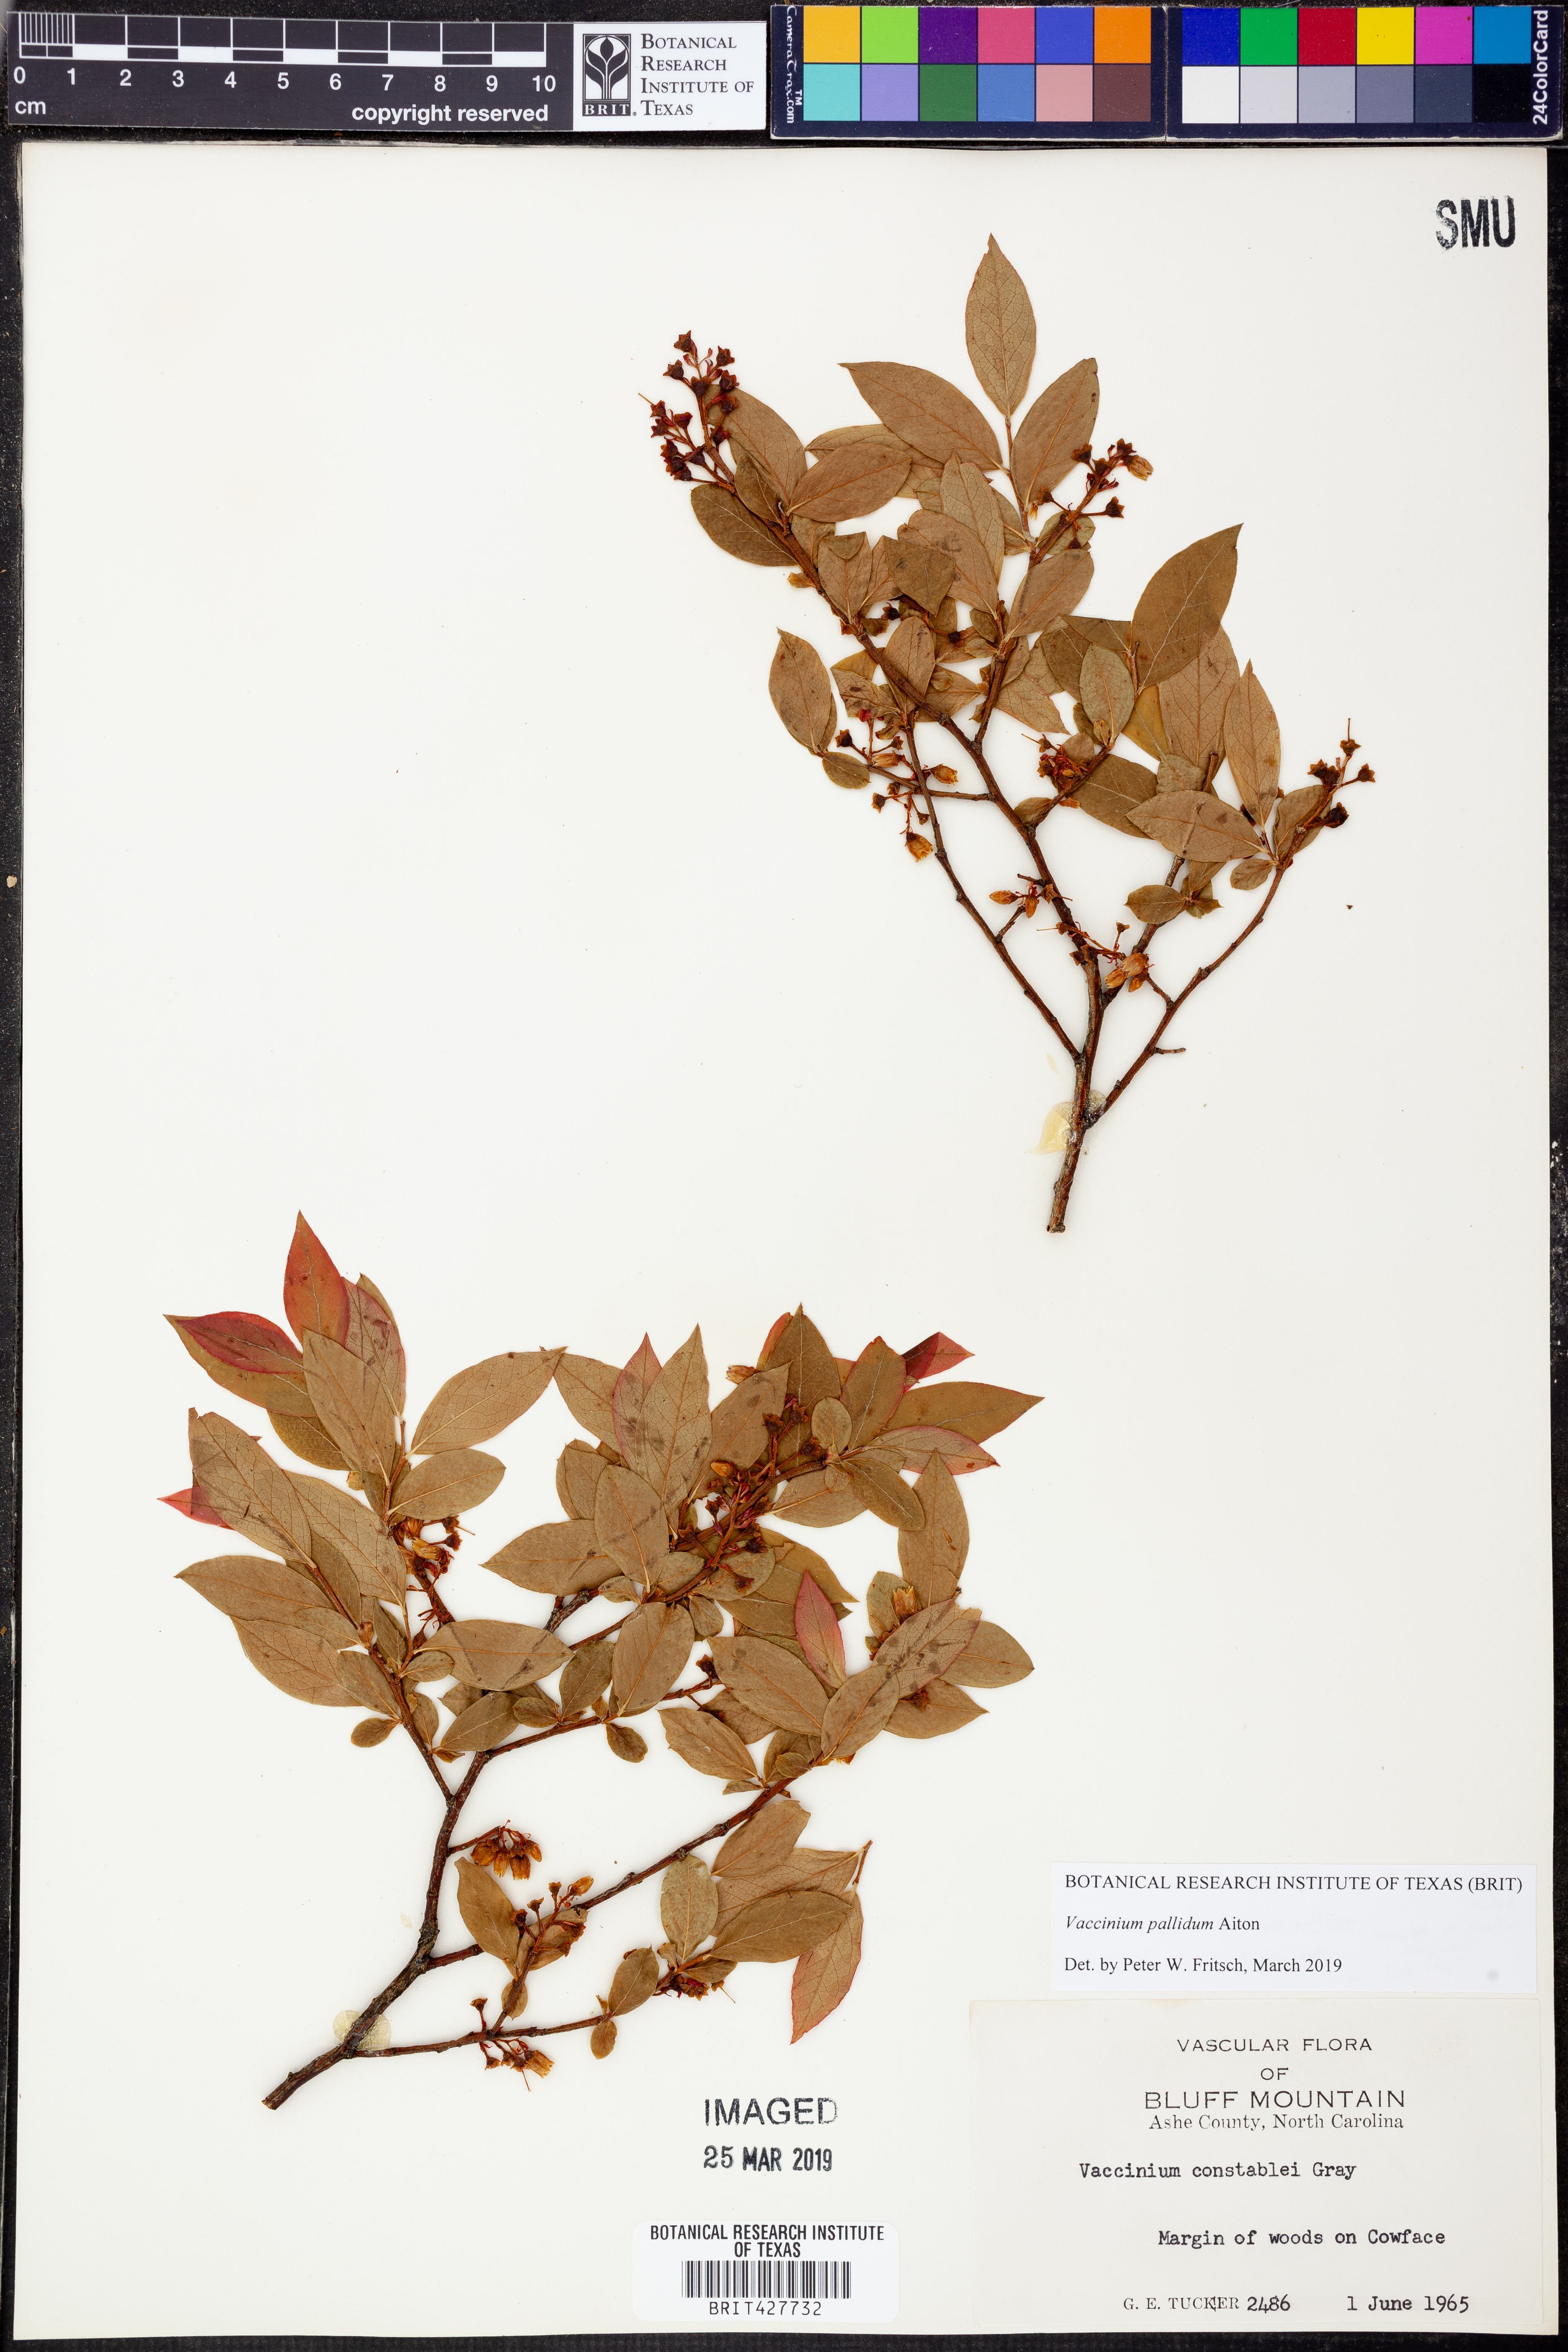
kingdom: Plantae
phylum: Tracheophyta
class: Magnoliopsida
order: Ericales
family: Ericaceae
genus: Vaccinium
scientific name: Vaccinium pallidum
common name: Blue ridge blueberry
